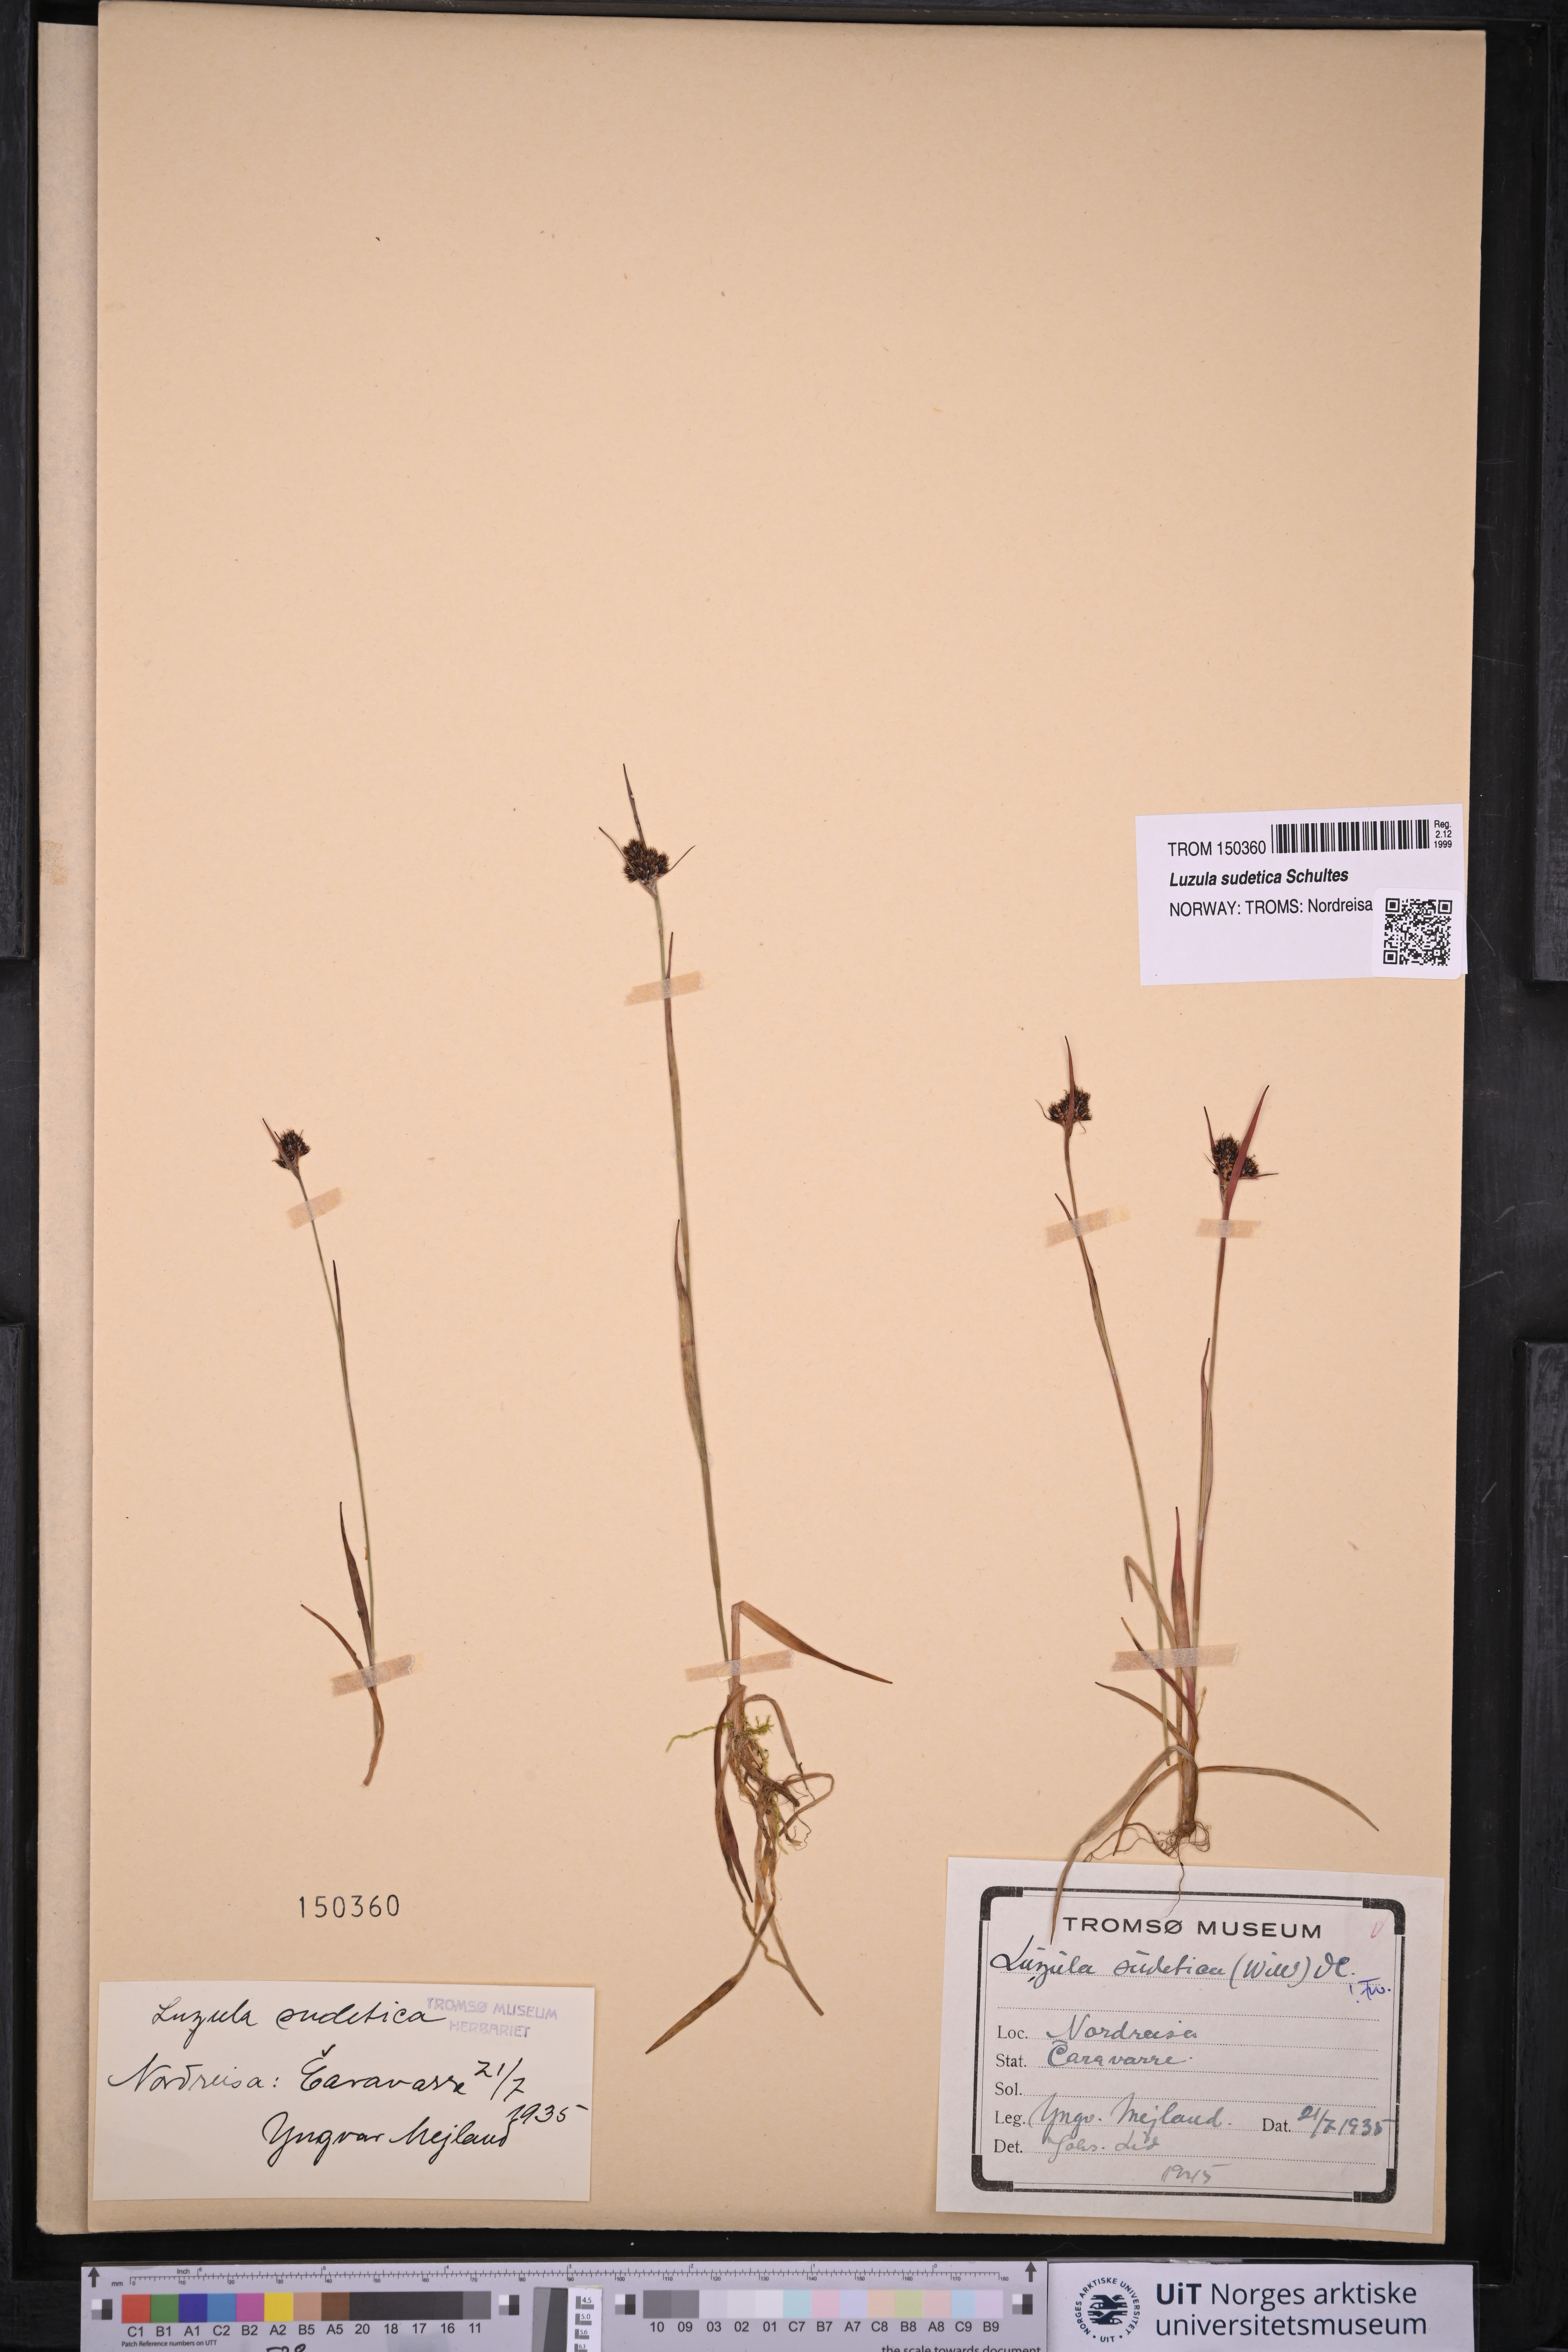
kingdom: Plantae
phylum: Tracheophyta
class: Liliopsida
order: Poales
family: Juncaceae
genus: Luzula
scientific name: Luzula sudetica
